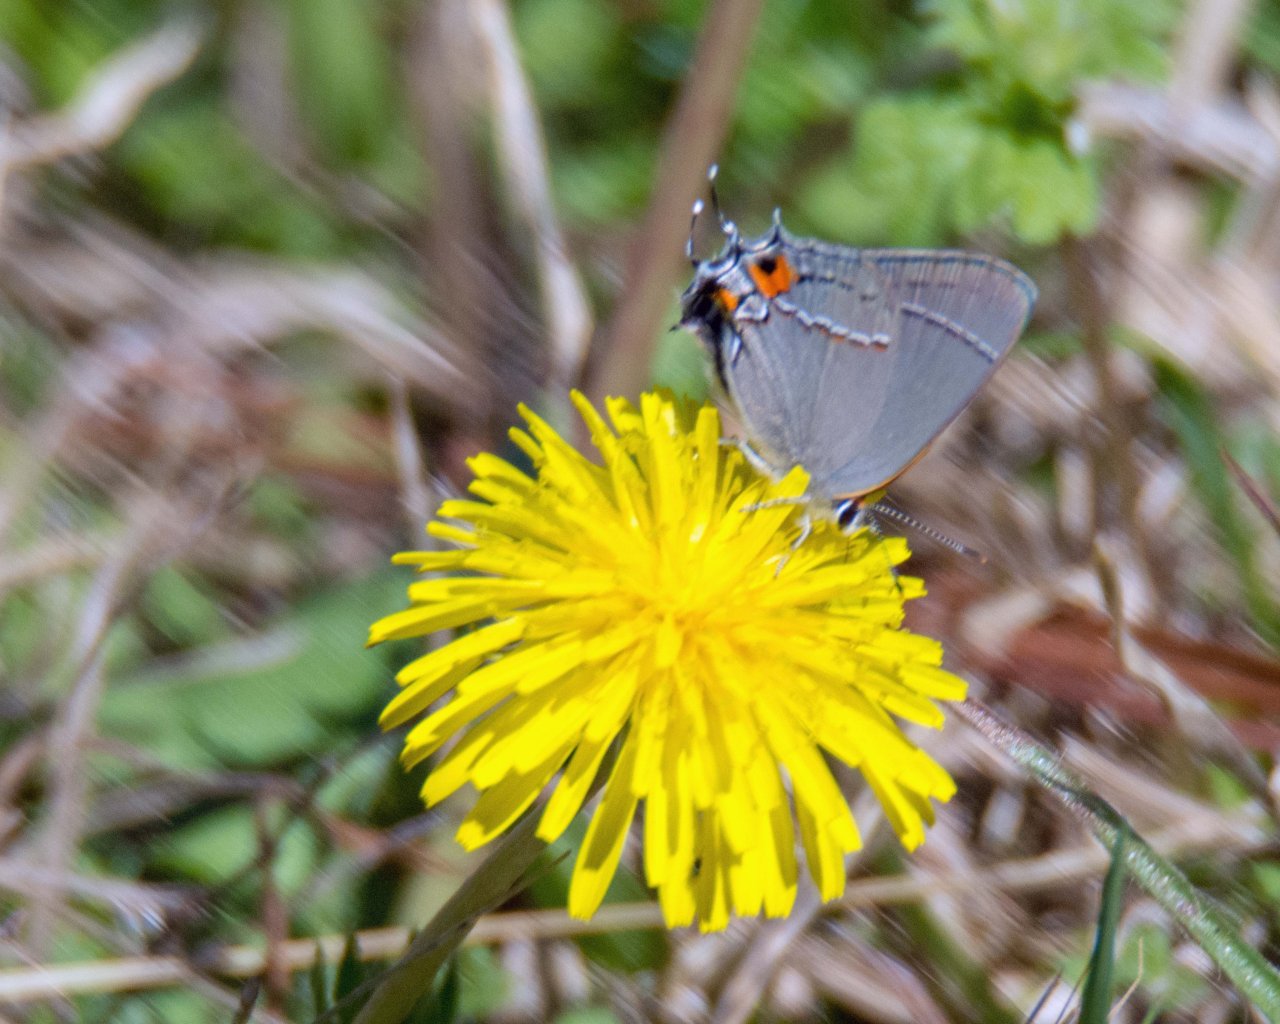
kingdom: Animalia
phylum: Arthropoda
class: Insecta
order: Lepidoptera
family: Lycaenidae
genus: Strymon
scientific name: Strymon melinus
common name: Gray Hairstreak
